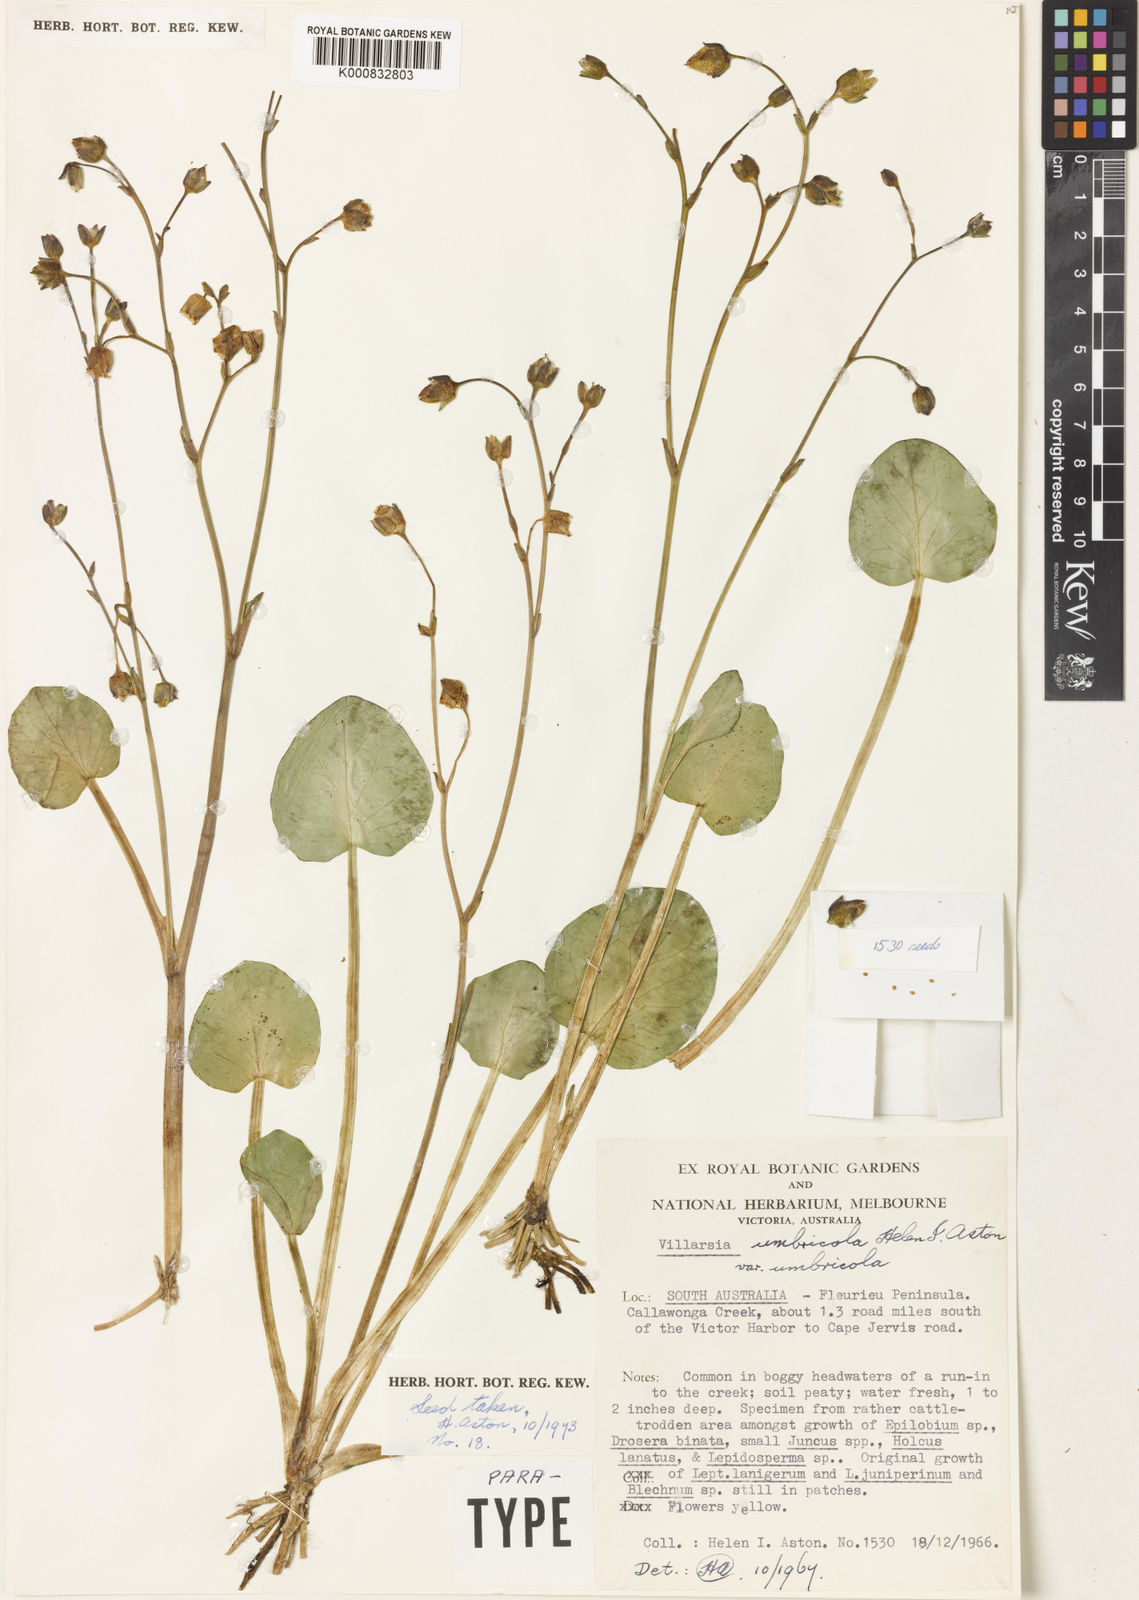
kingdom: Plantae
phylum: Tracheophyta
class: Magnoliopsida
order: Asterales
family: Menyanthaceae
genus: Ornduffia
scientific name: Ornduffia umbricola
